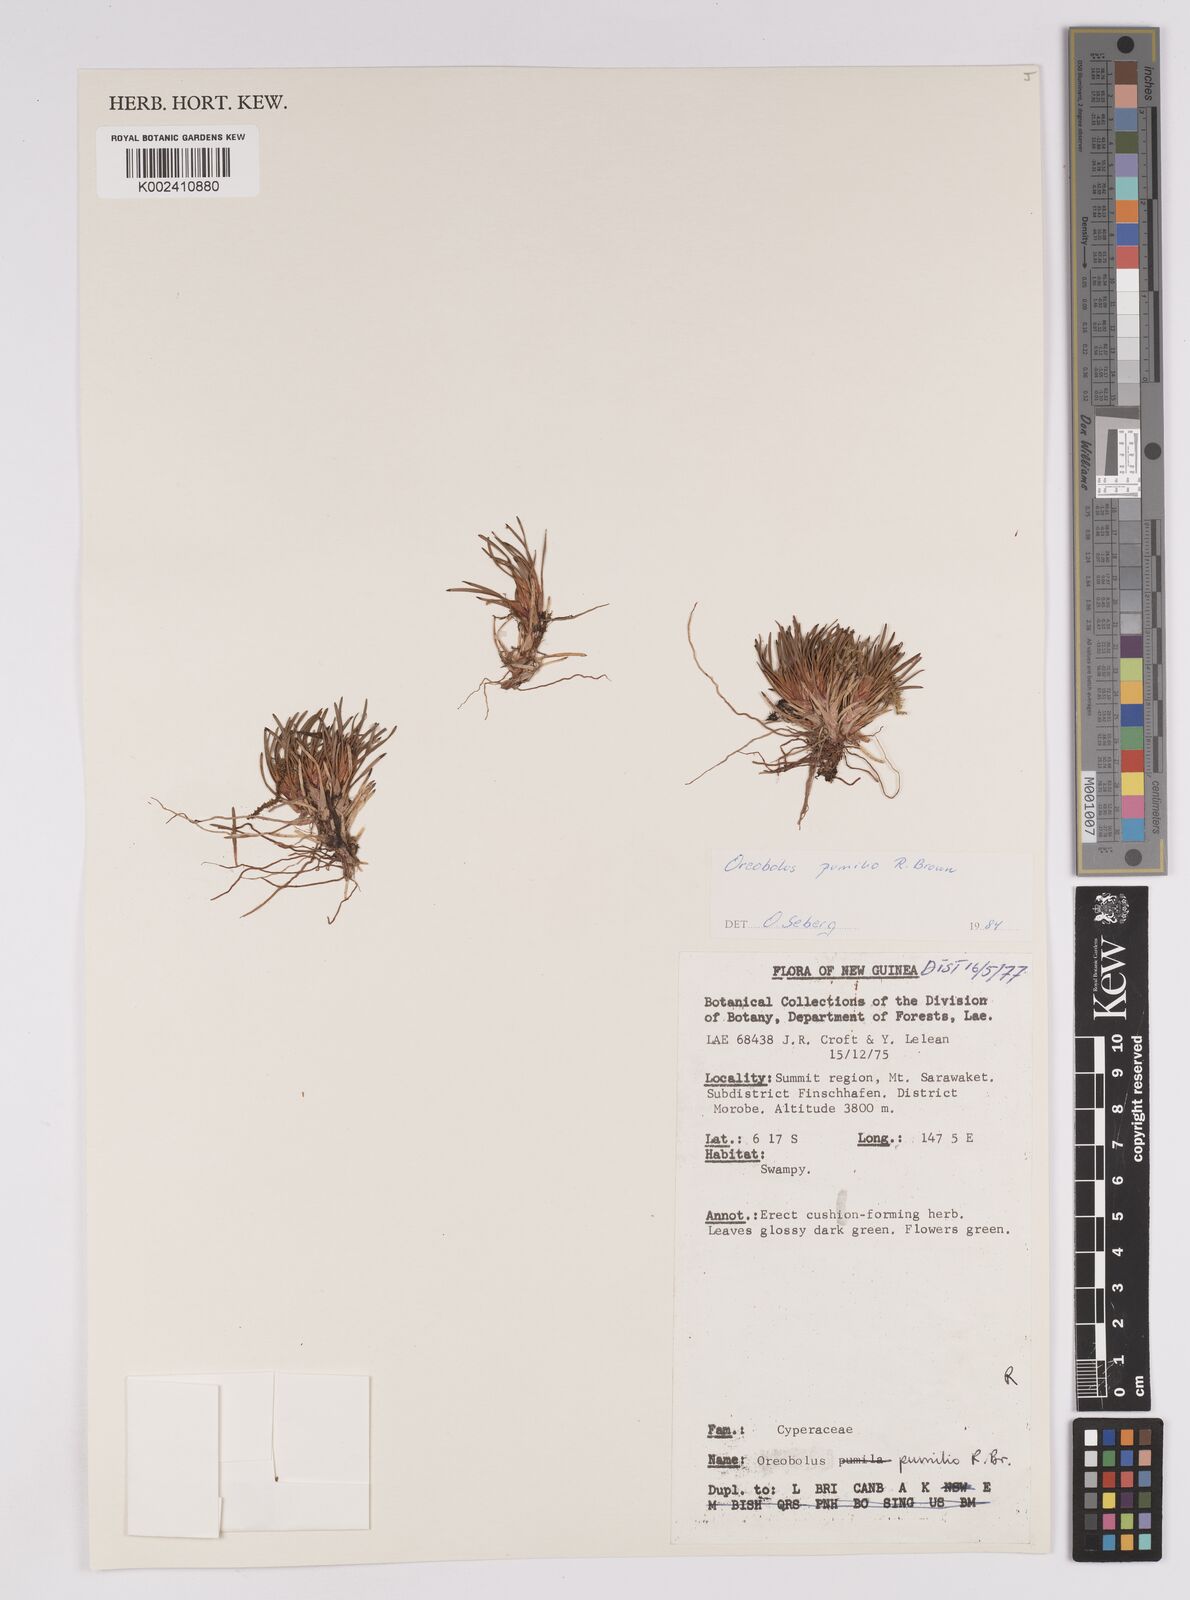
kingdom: Plantae
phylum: Tracheophyta
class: Liliopsida
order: Poales
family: Cyperaceae
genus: Oreobolus
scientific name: Oreobolus pumilio
